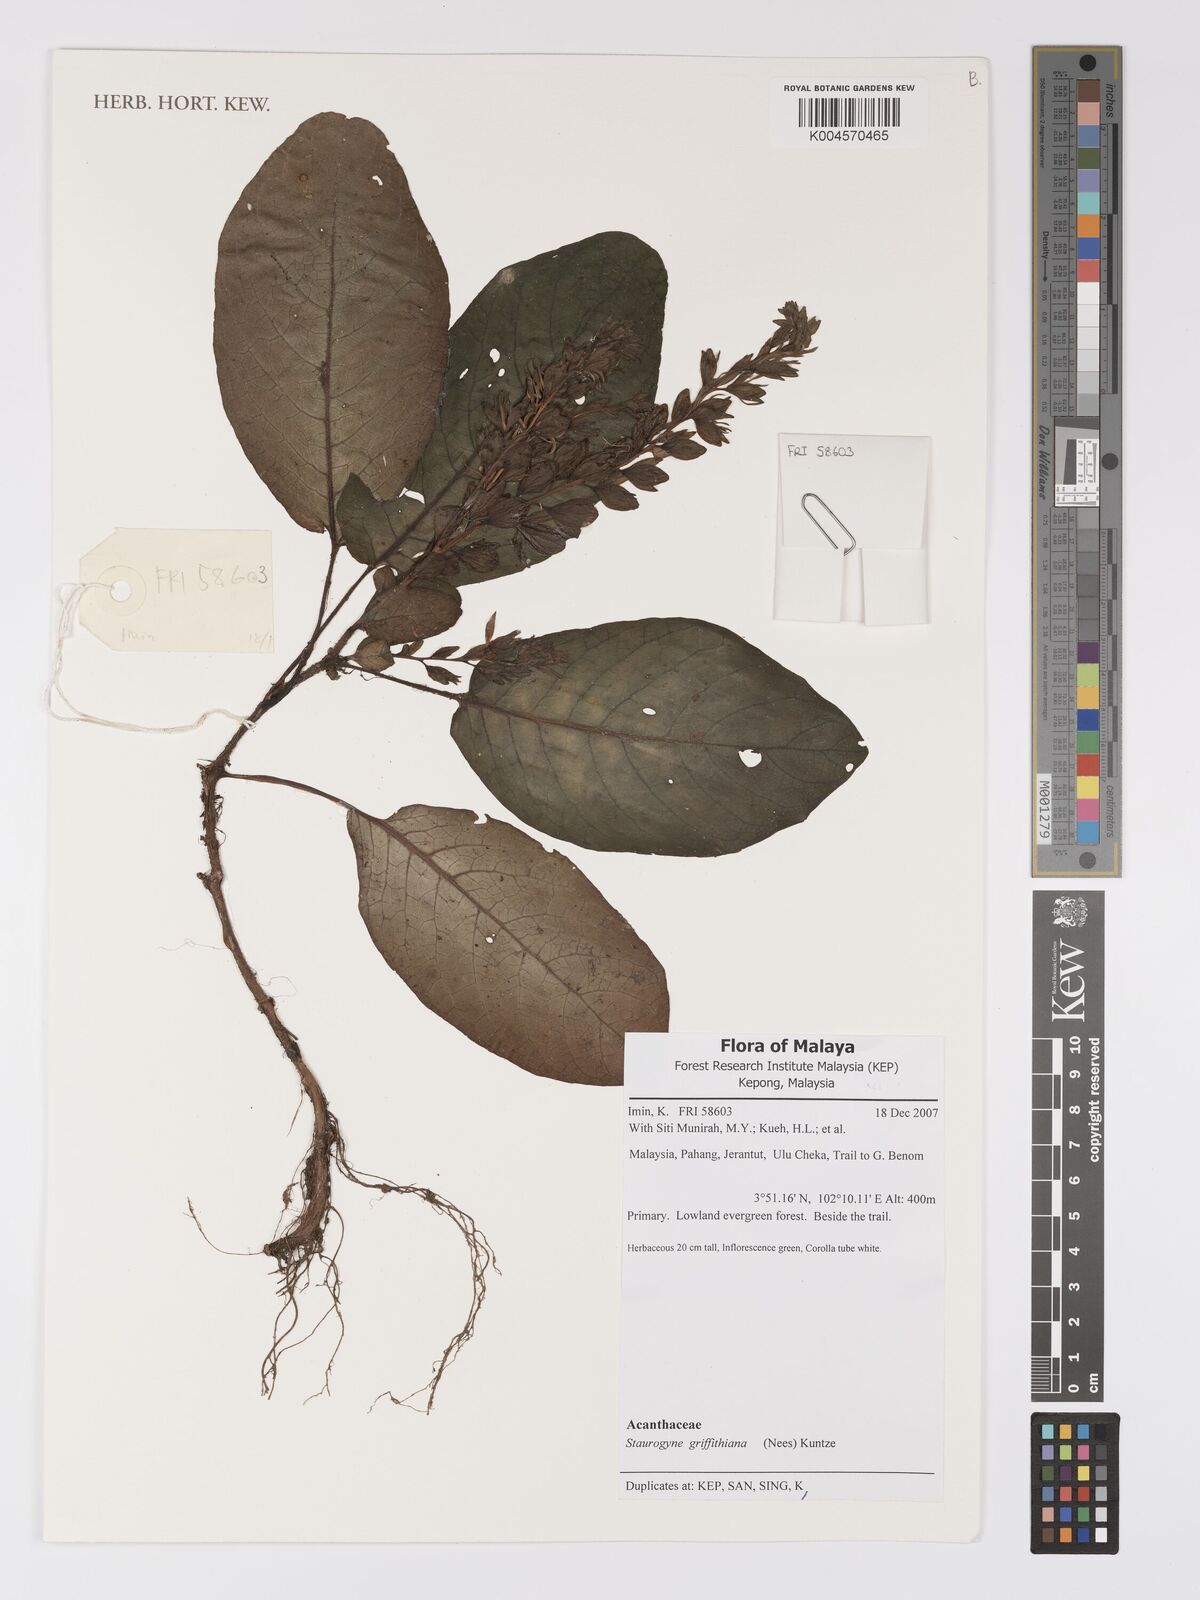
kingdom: Plantae
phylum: Tracheophyta
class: Magnoliopsida
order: Lamiales
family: Acanthaceae
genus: Staurogyne
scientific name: Staurogyne griffithiana
